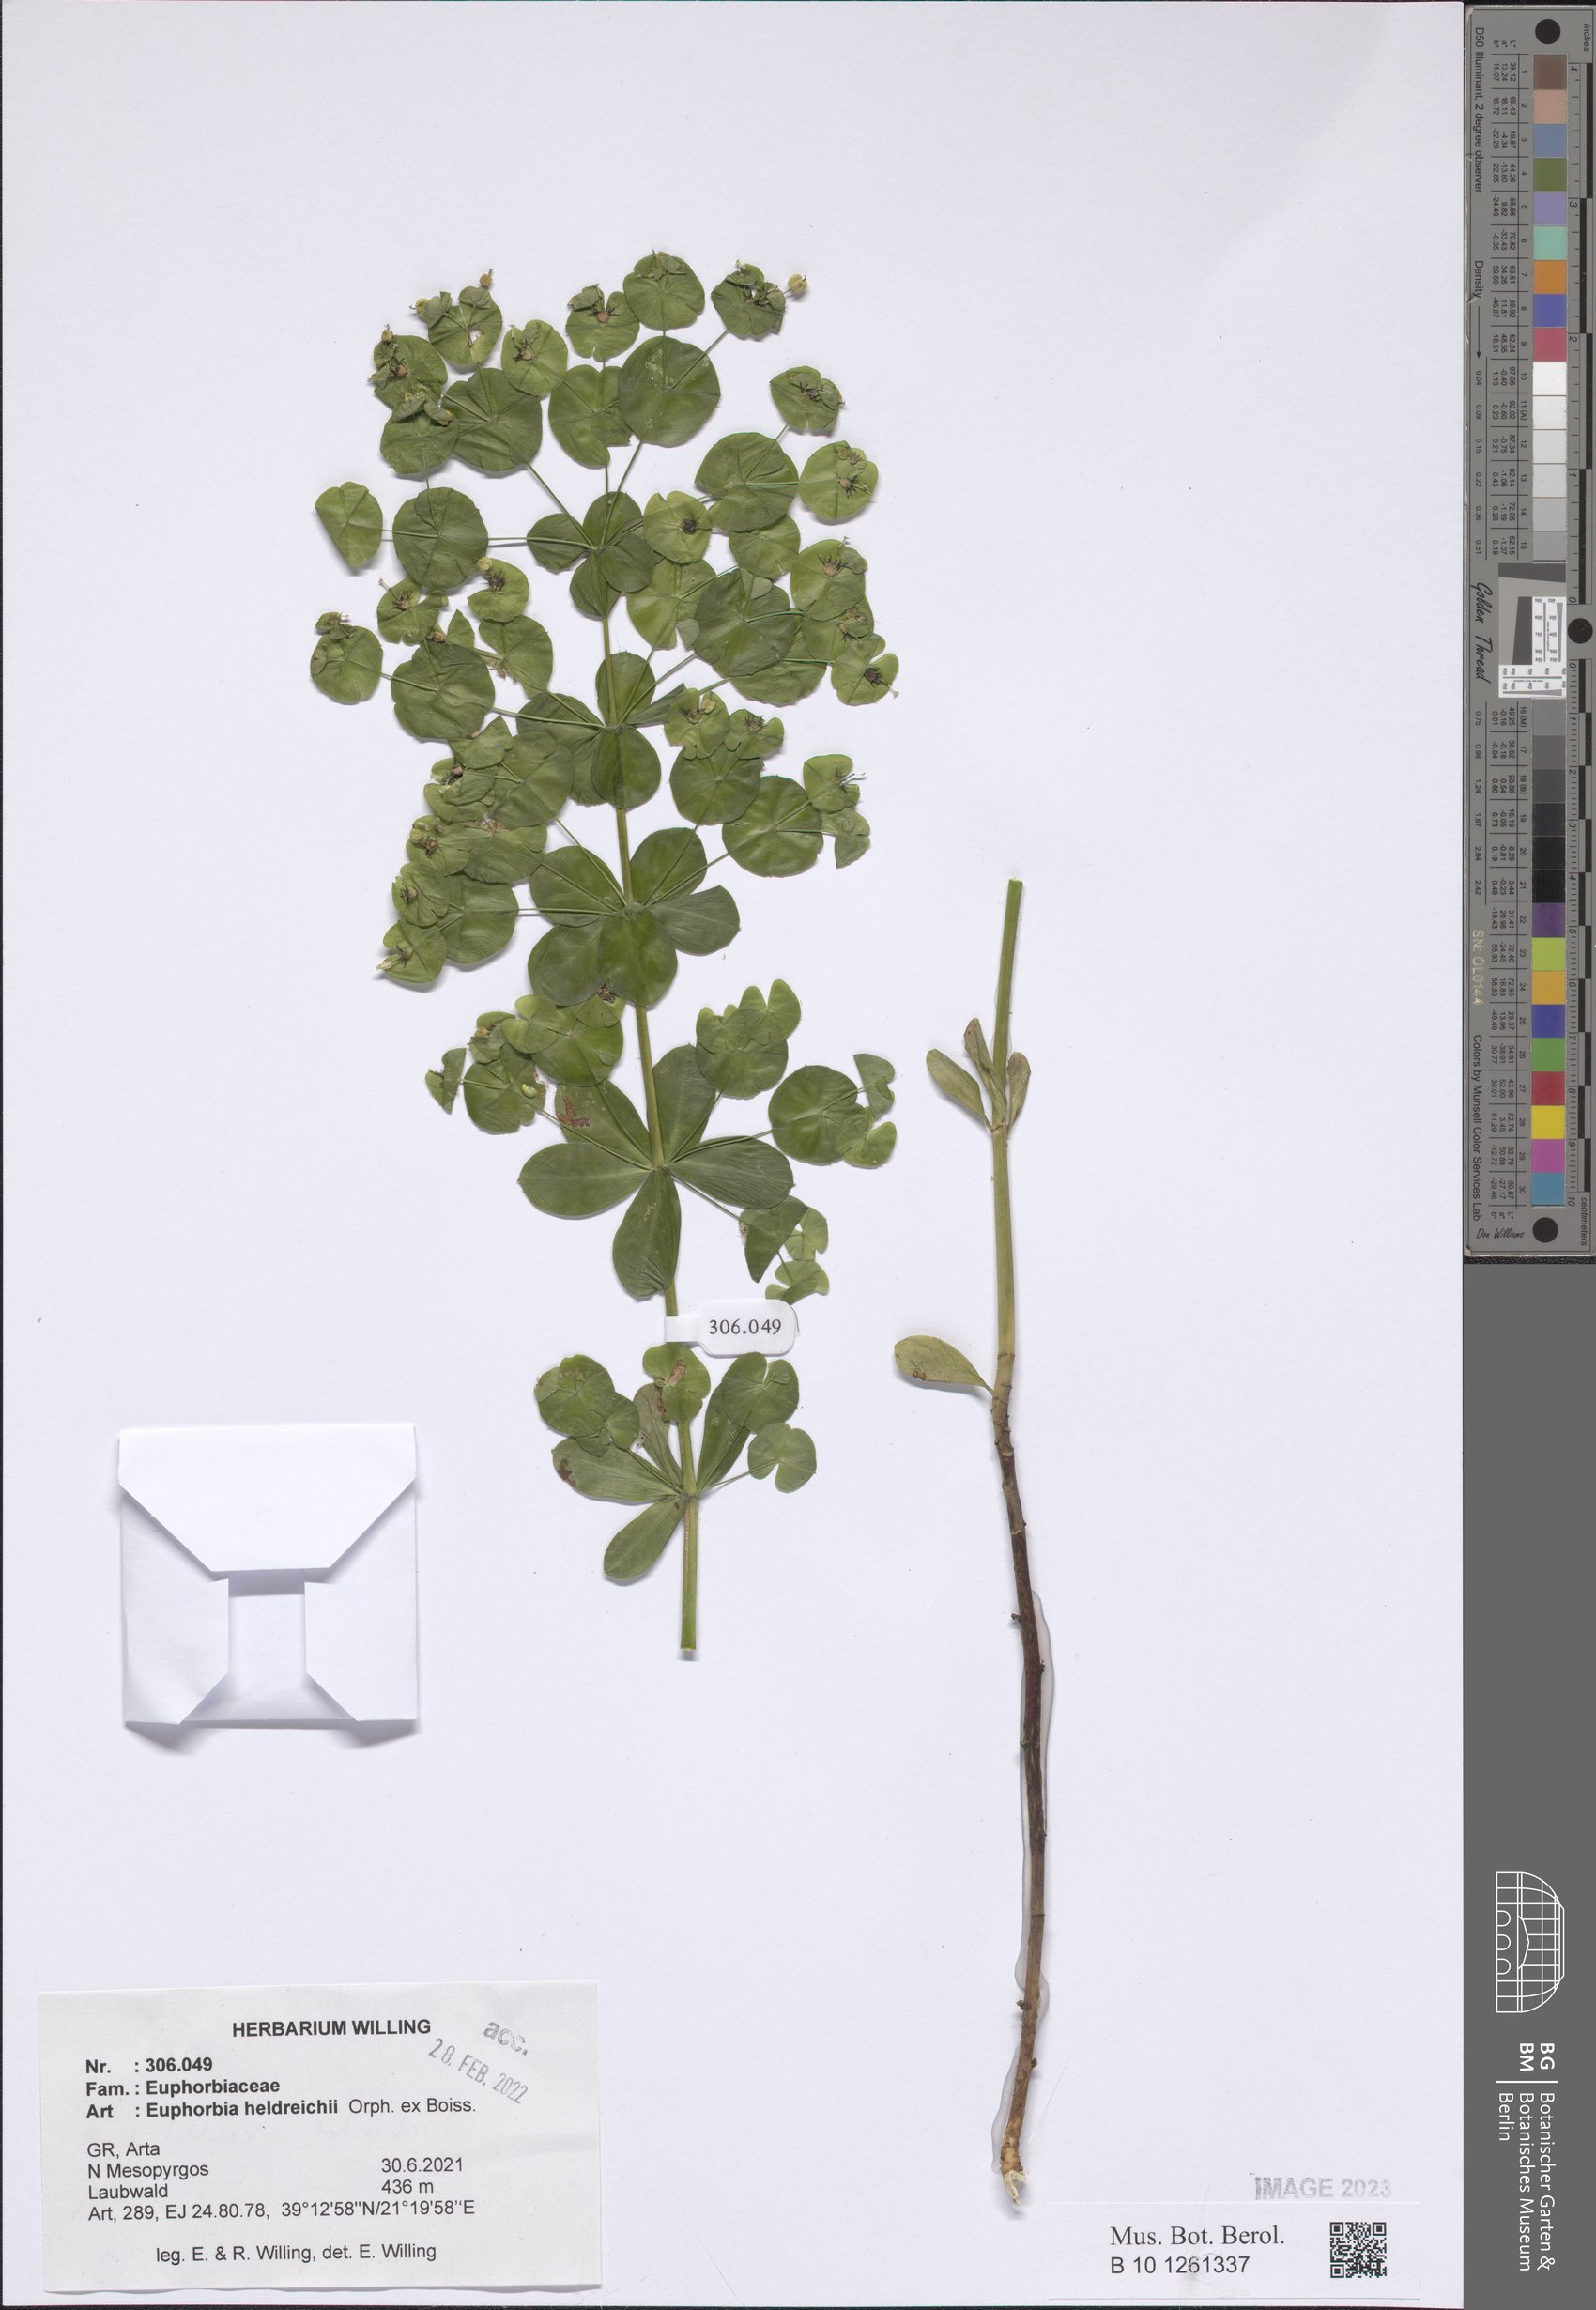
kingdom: Plantae
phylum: Tracheophyta
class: Magnoliopsida
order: Malpighiales
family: Euphorbiaceae
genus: Euphorbia
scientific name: Euphorbia heldreichii
